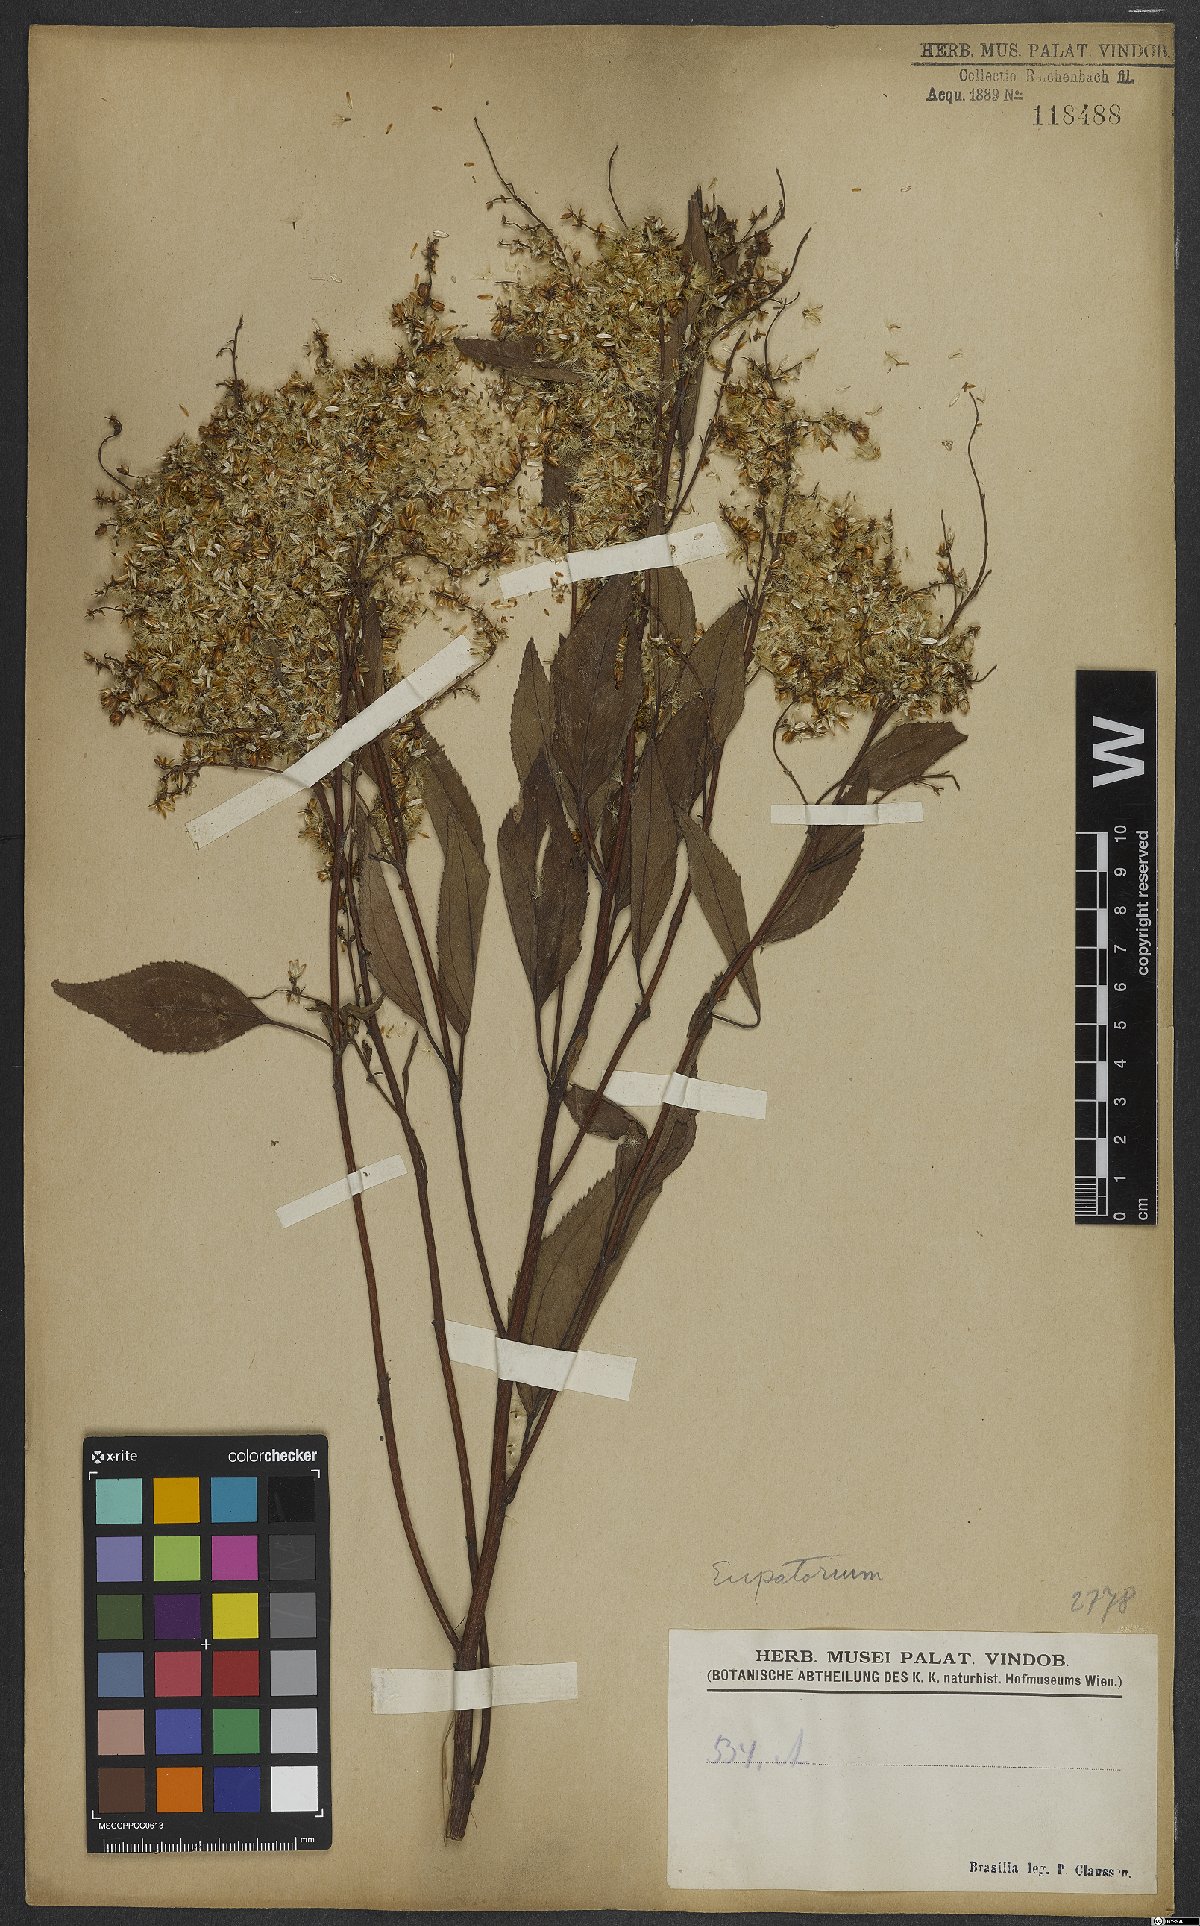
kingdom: Plantae
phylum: Tracheophyta
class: Magnoliopsida
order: Asterales
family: Asteraceae
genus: Eupatorium
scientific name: Eupatorium
